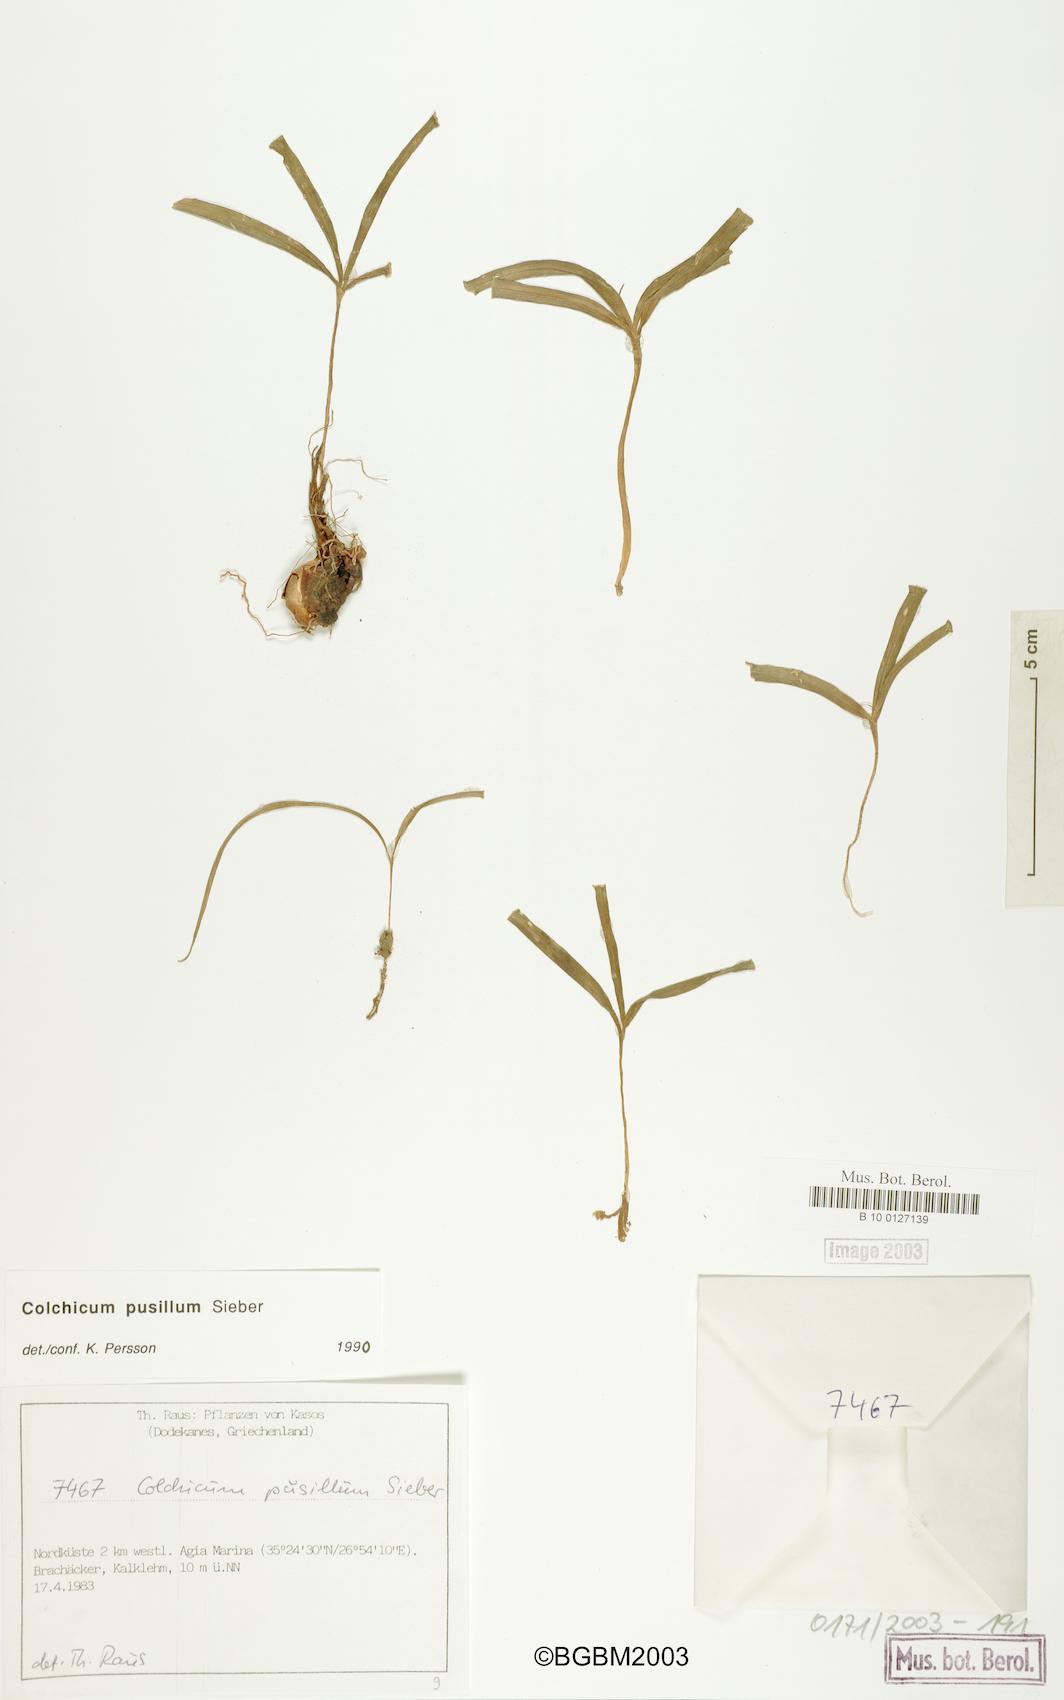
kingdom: Plantae
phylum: Tracheophyta
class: Liliopsida
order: Liliales
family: Colchicaceae
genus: Colchicum
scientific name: Colchicum pusillum
